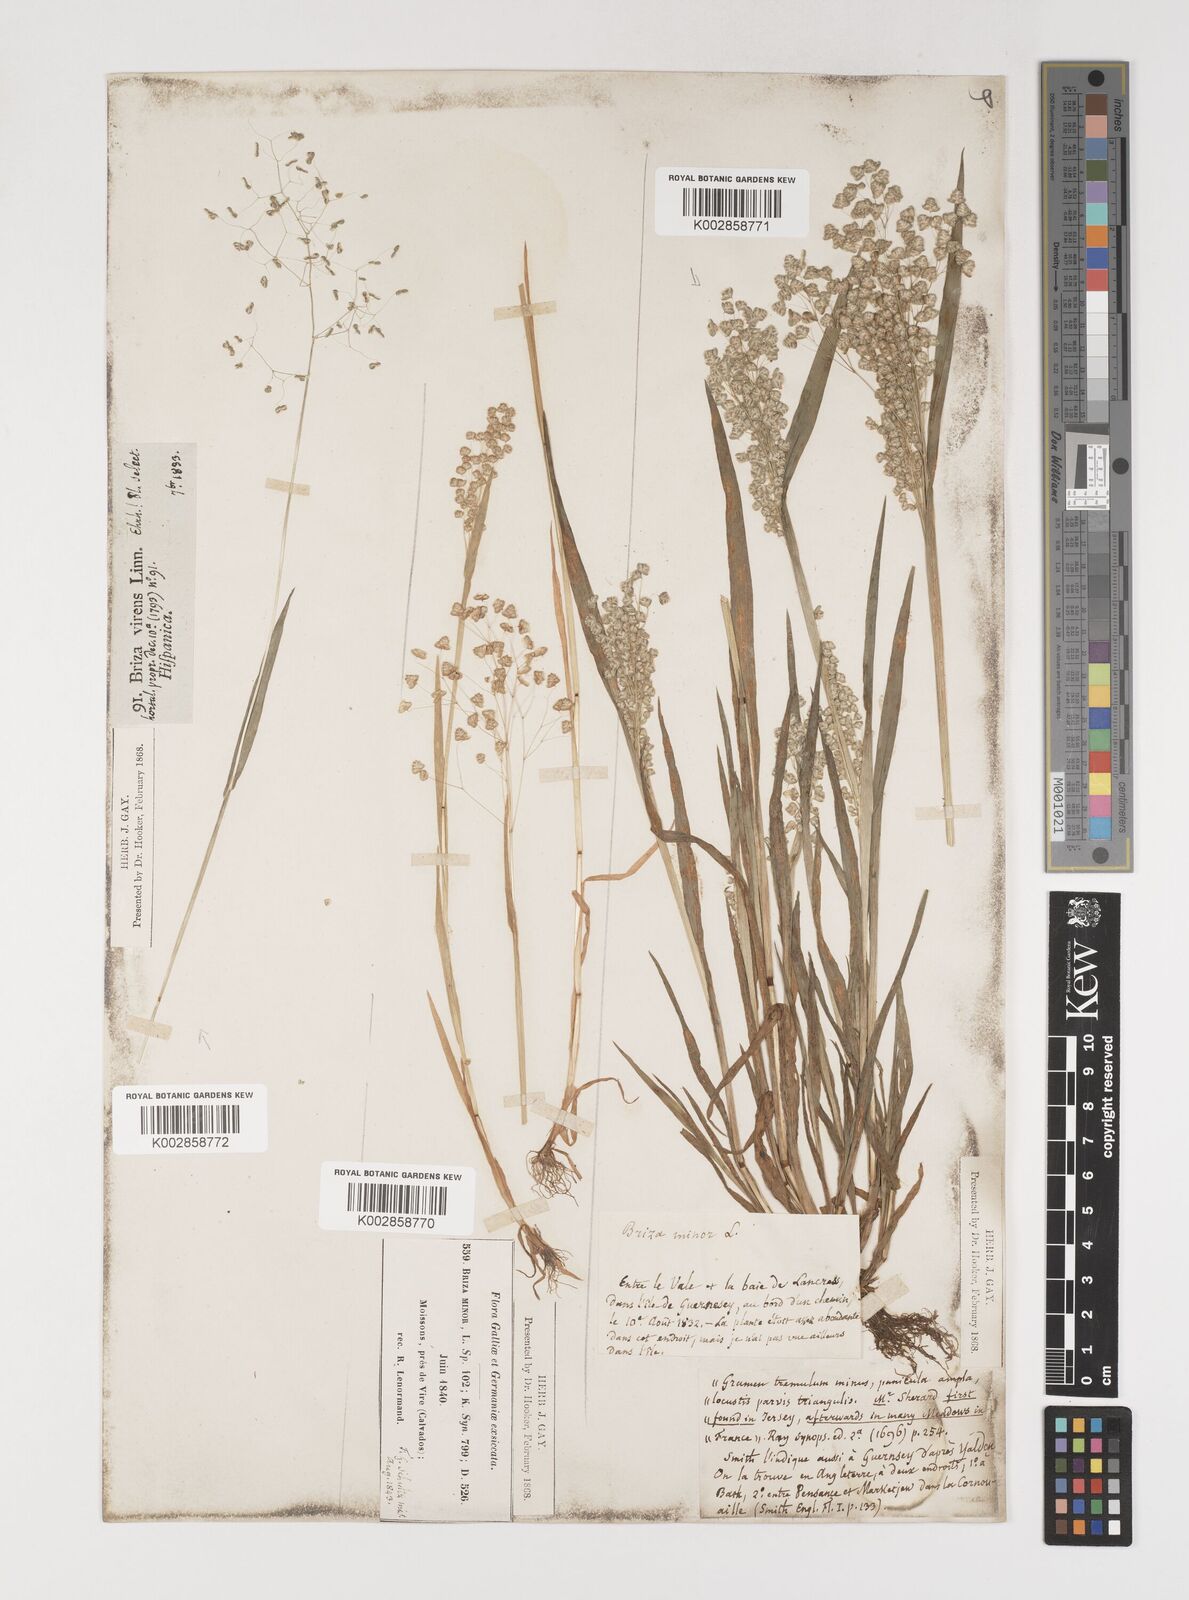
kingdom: Plantae
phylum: Tracheophyta
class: Liliopsida
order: Poales
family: Poaceae
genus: Briza
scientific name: Briza minor
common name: Lesser quaking-grass
